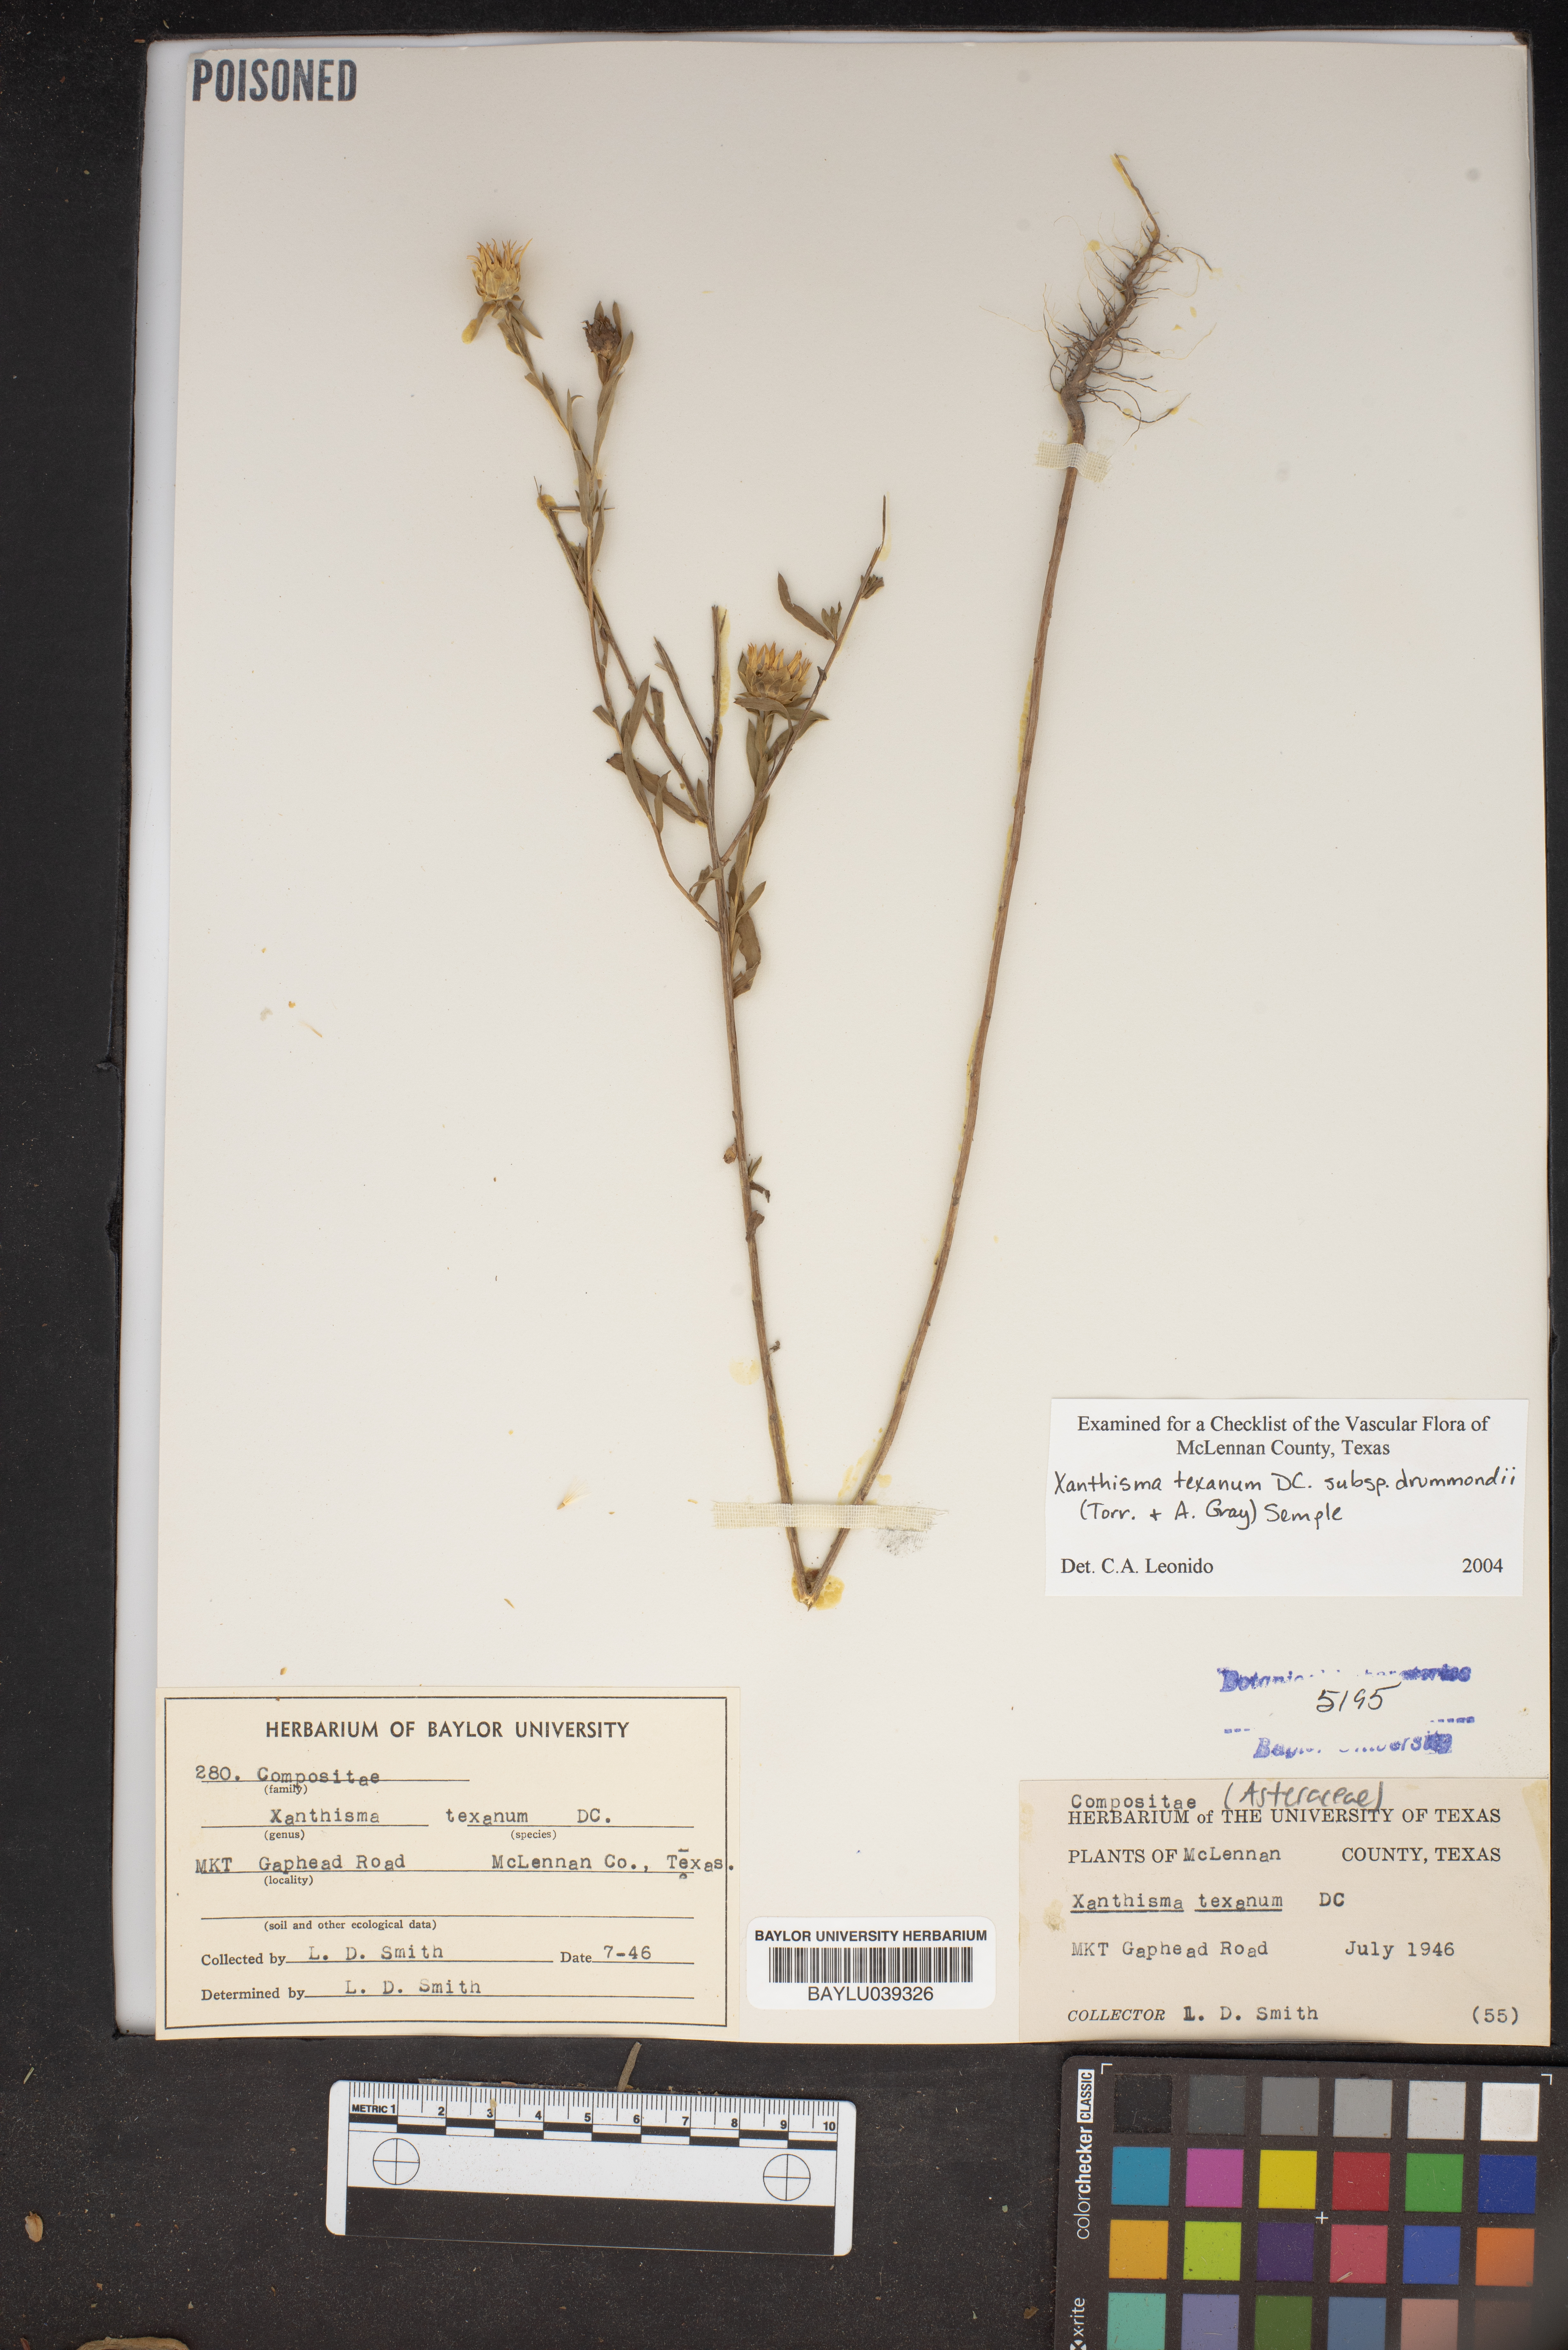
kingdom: Plantae
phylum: Tracheophyta
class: Magnoliopsida
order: Asterales
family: Asteraceae
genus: Xanthisma
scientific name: Xanthisma texanum
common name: Texas sleepy daisy
